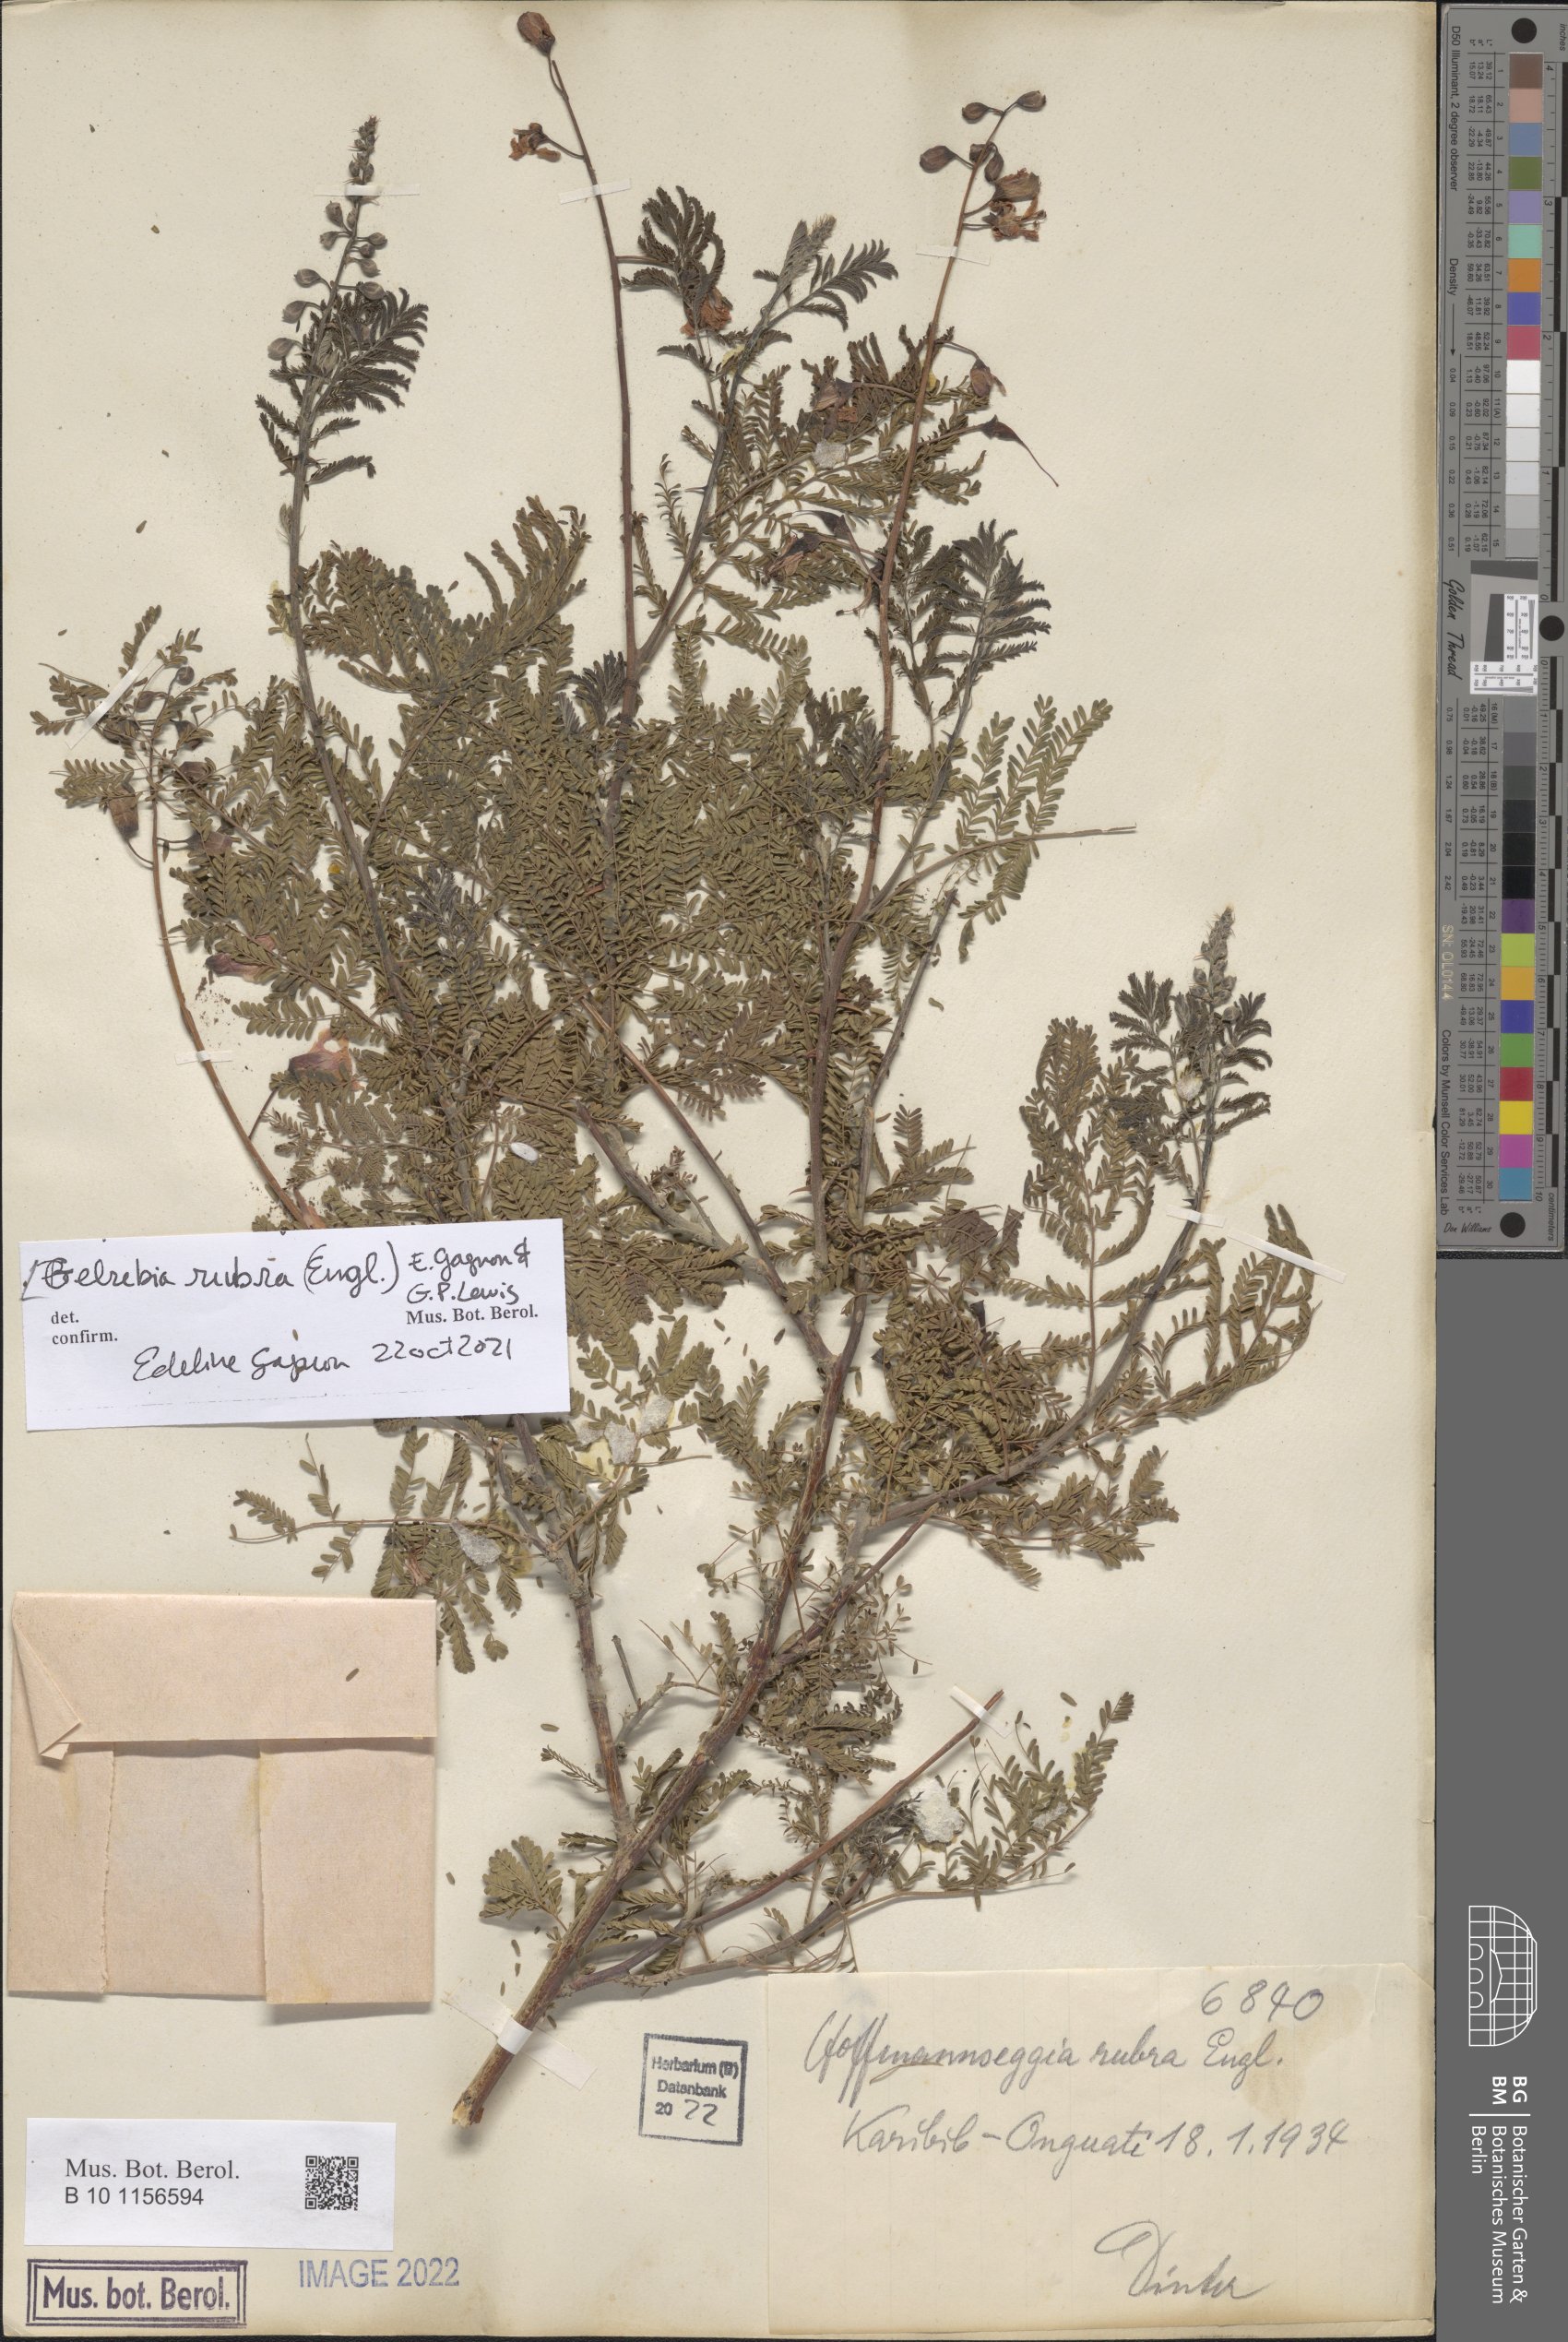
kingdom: Plantae
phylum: Tracheophyta
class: Magnoliopsida
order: Fabales
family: Fabaceae
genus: Gelrebia
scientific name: Gelrebia rubra
